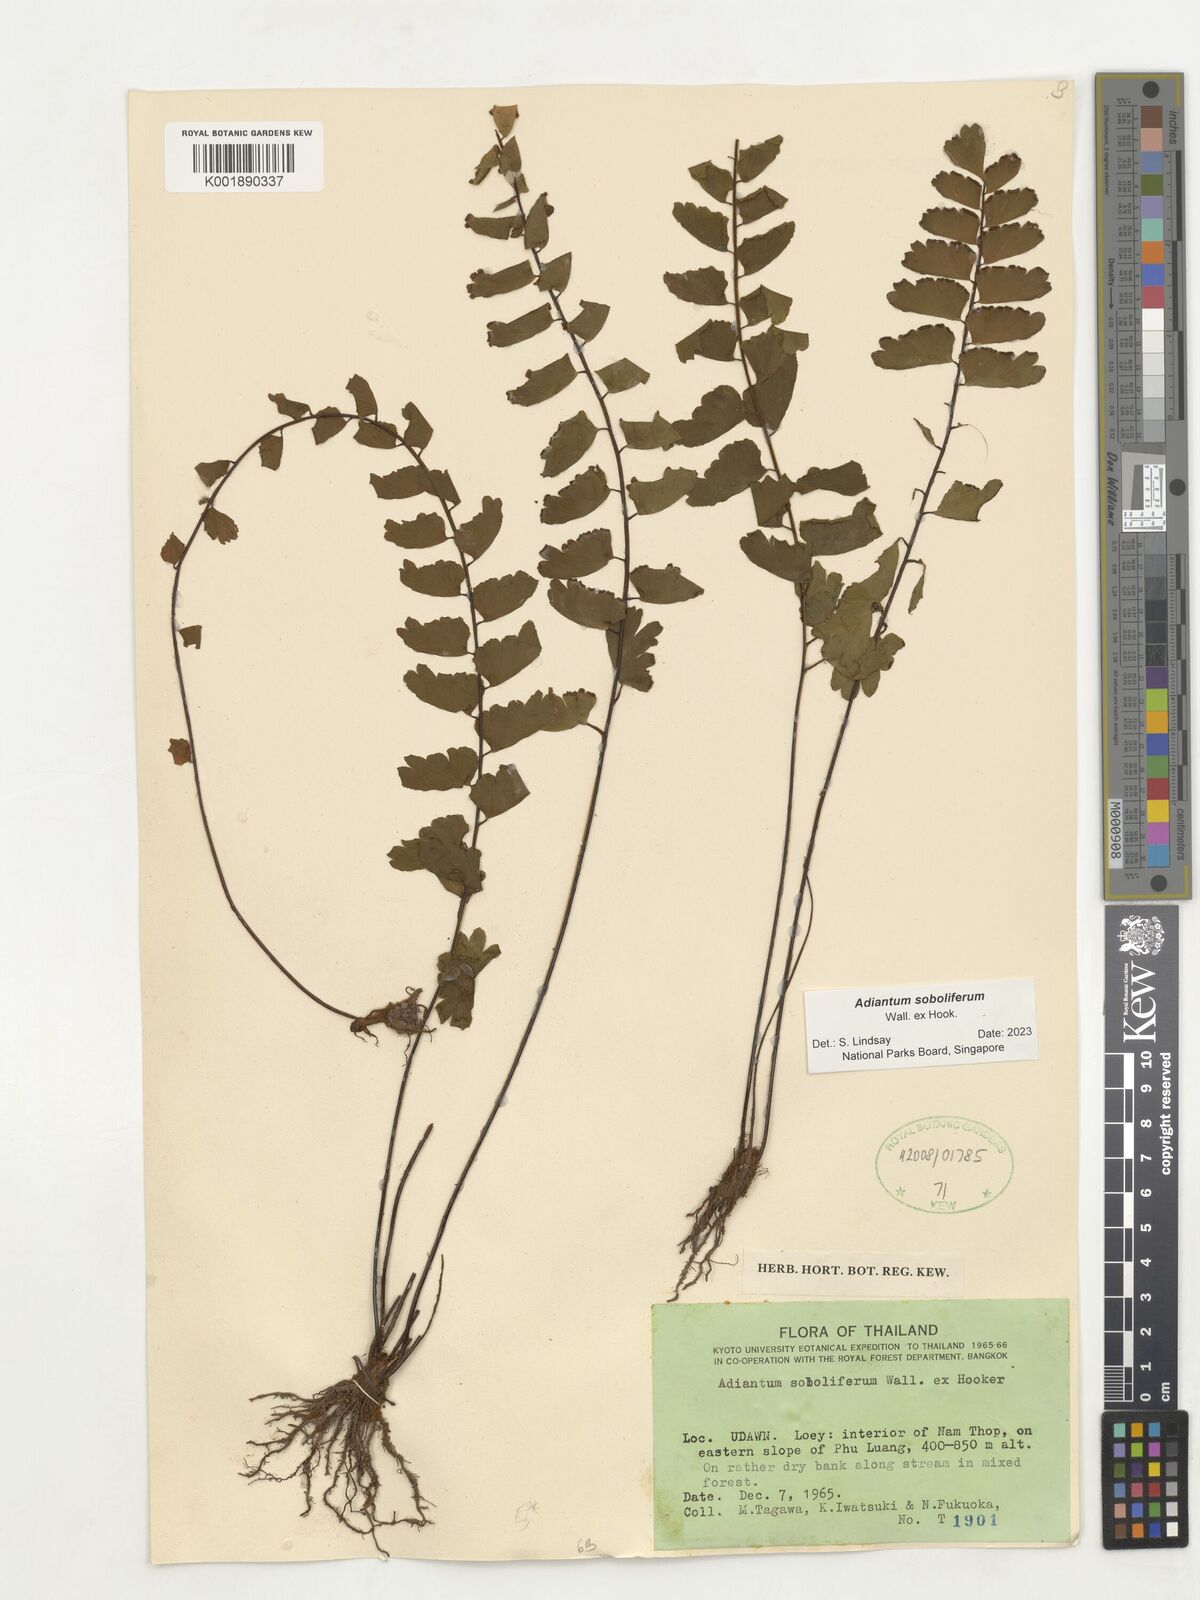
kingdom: Plantae
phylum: Tracheophyta
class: Polypodiopsida
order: Polypodiales
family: Pteridaceae
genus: Adiantum
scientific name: Adiantum soboliferum
